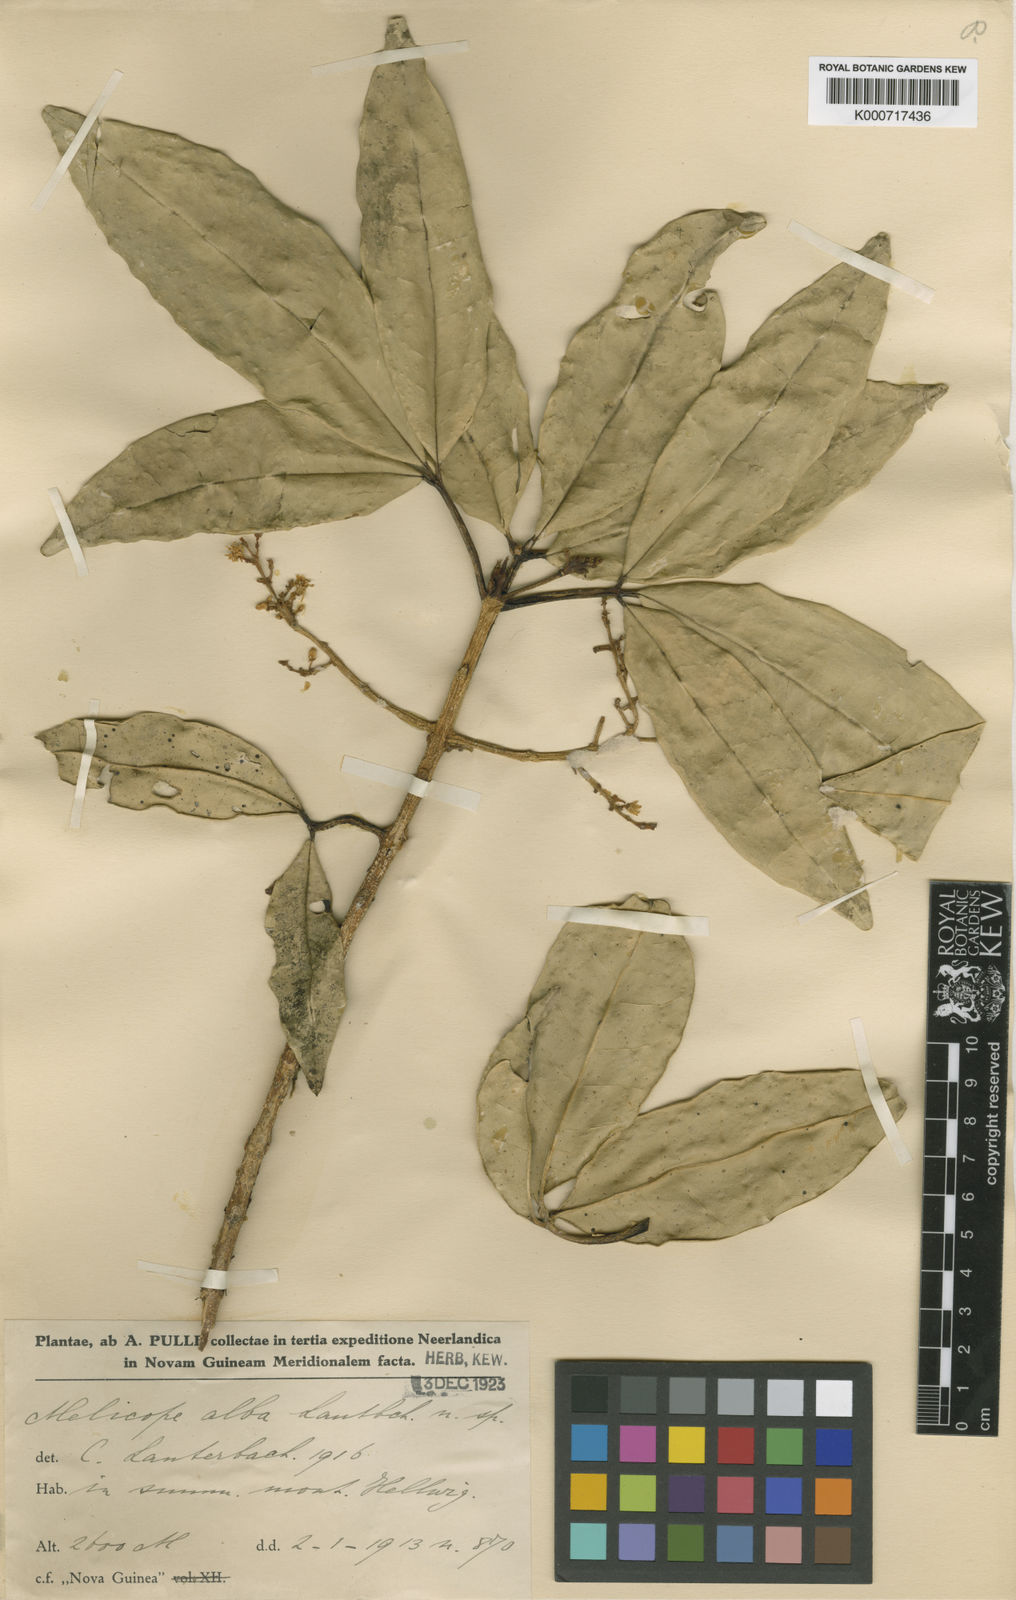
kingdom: Plantae
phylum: Tracheophyta
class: Magnoliopsida
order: Sapindales
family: Rutaceae
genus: Melicope
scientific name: Melicope alba
